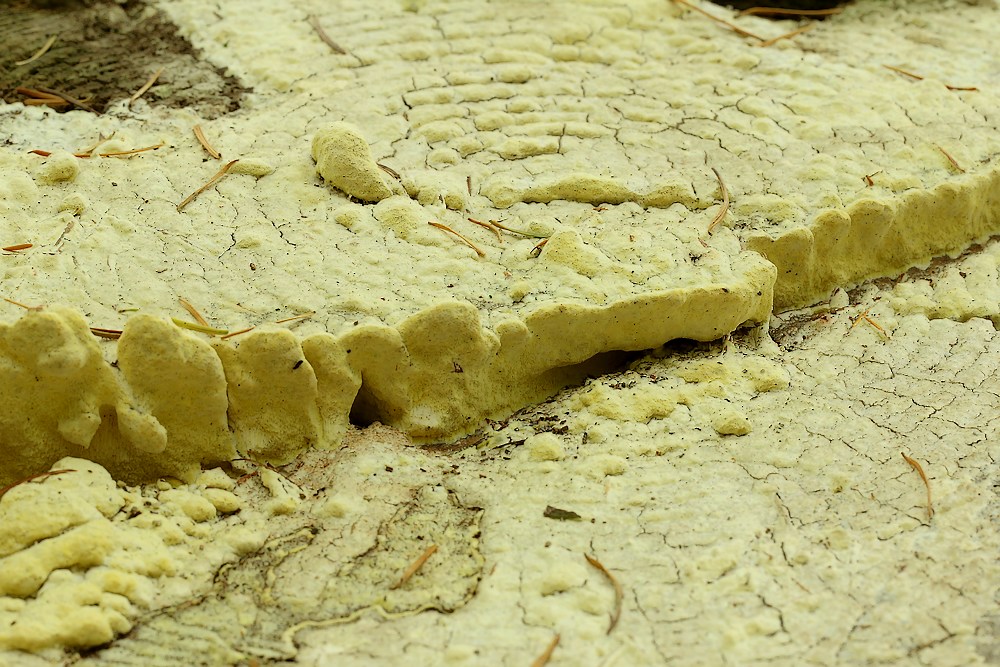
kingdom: Fungi
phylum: Basidiomycota
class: Agaricomycetes
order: Polyporales
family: Fomitopsidaceae
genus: Daedalea
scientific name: Daedalea xantha
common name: gul sejporesvamp
